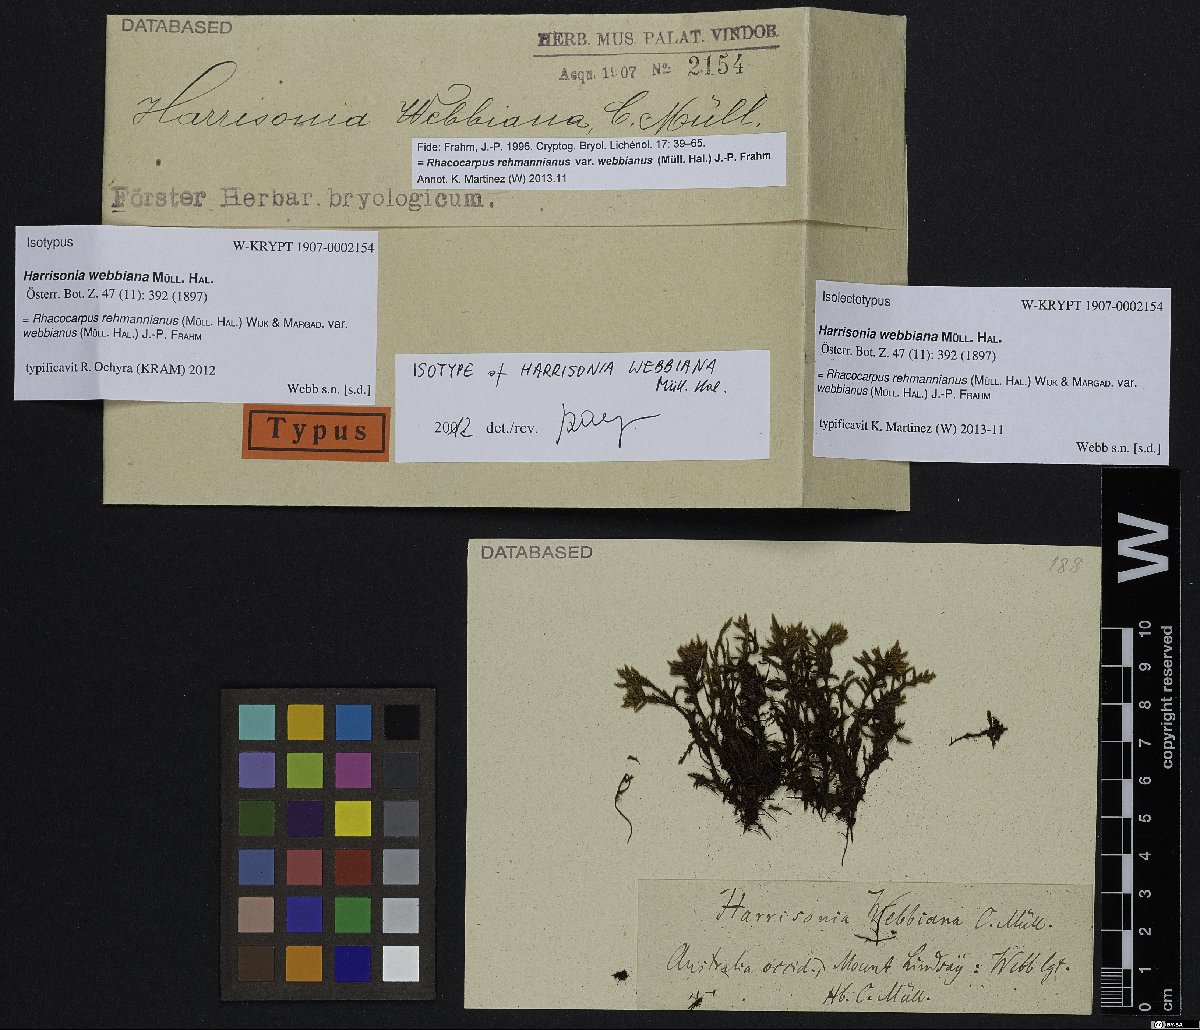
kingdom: Plantae
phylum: Bryophyta
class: Bryopsida
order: Hedwigiales
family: Hedwigiaceae
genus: Rhacocarpus
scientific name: Rhacocarpus rehmannianus
